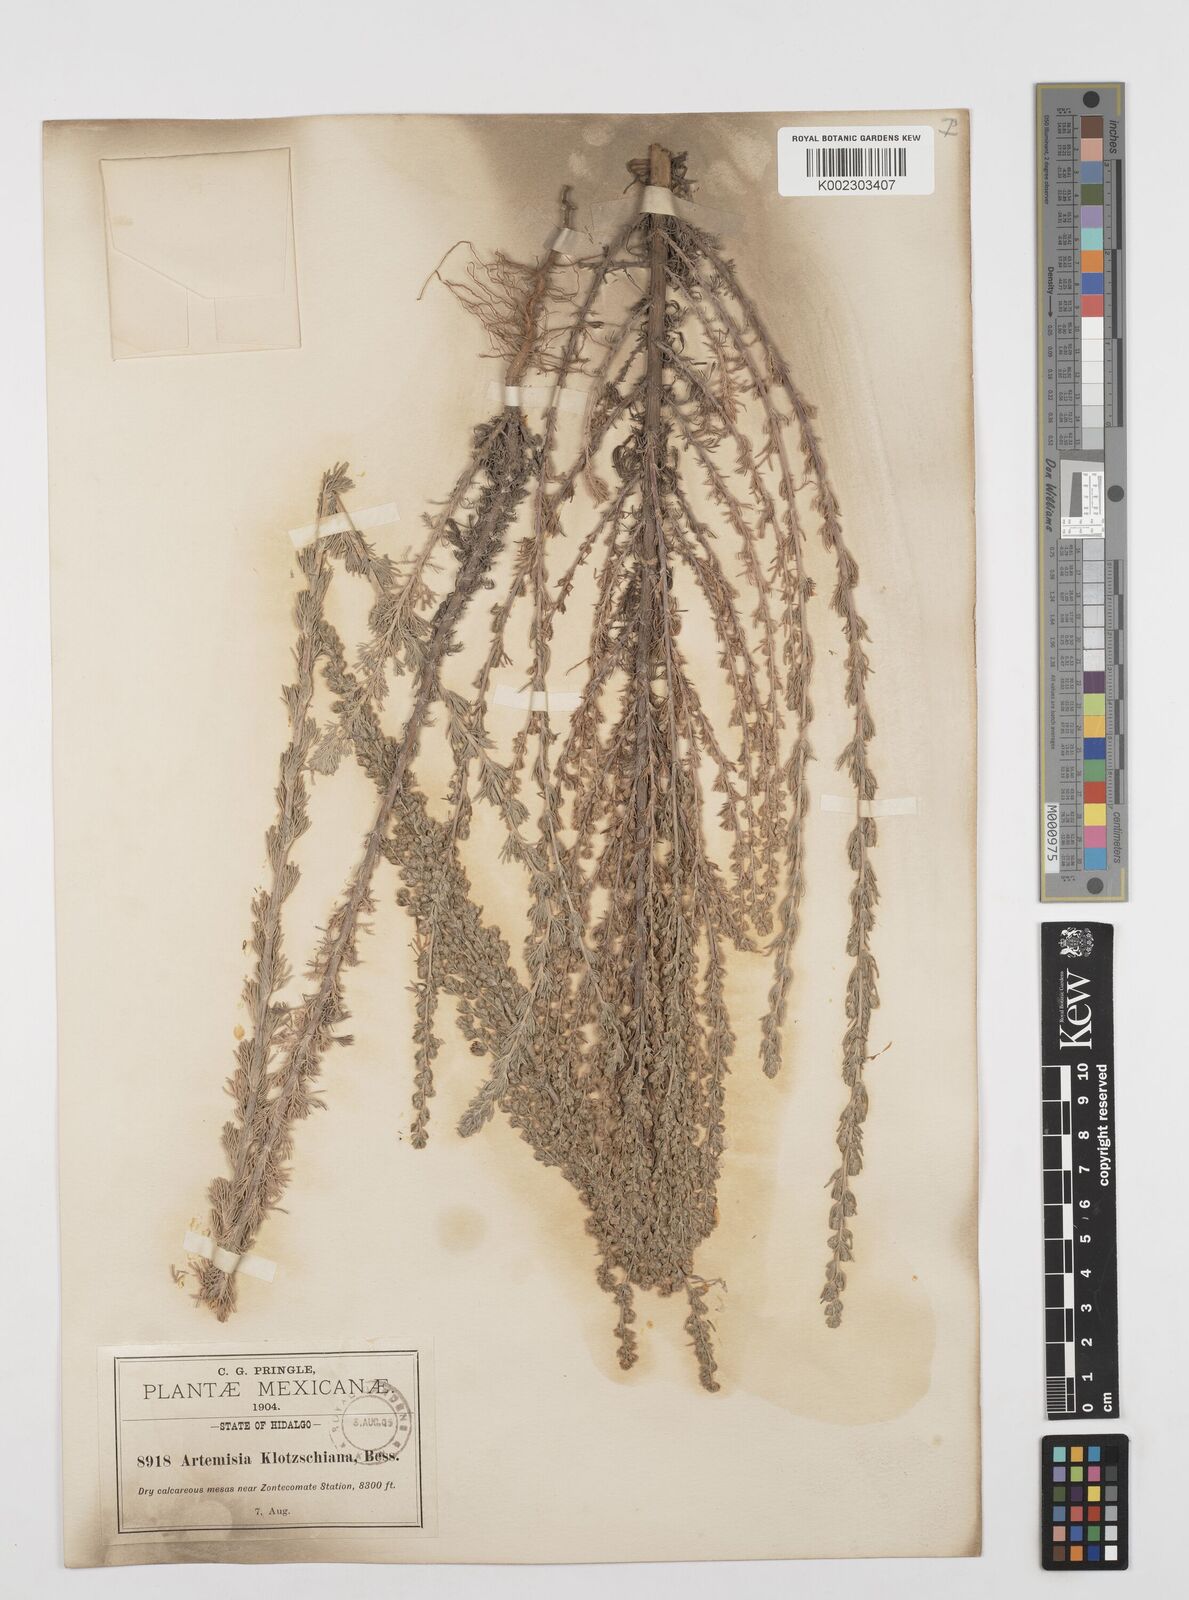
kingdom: Plantae
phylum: Tracheophyta
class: Magnoliopsida
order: Asterales
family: Asteraceae
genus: Artemisia
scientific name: Artemisia klotzschiana
